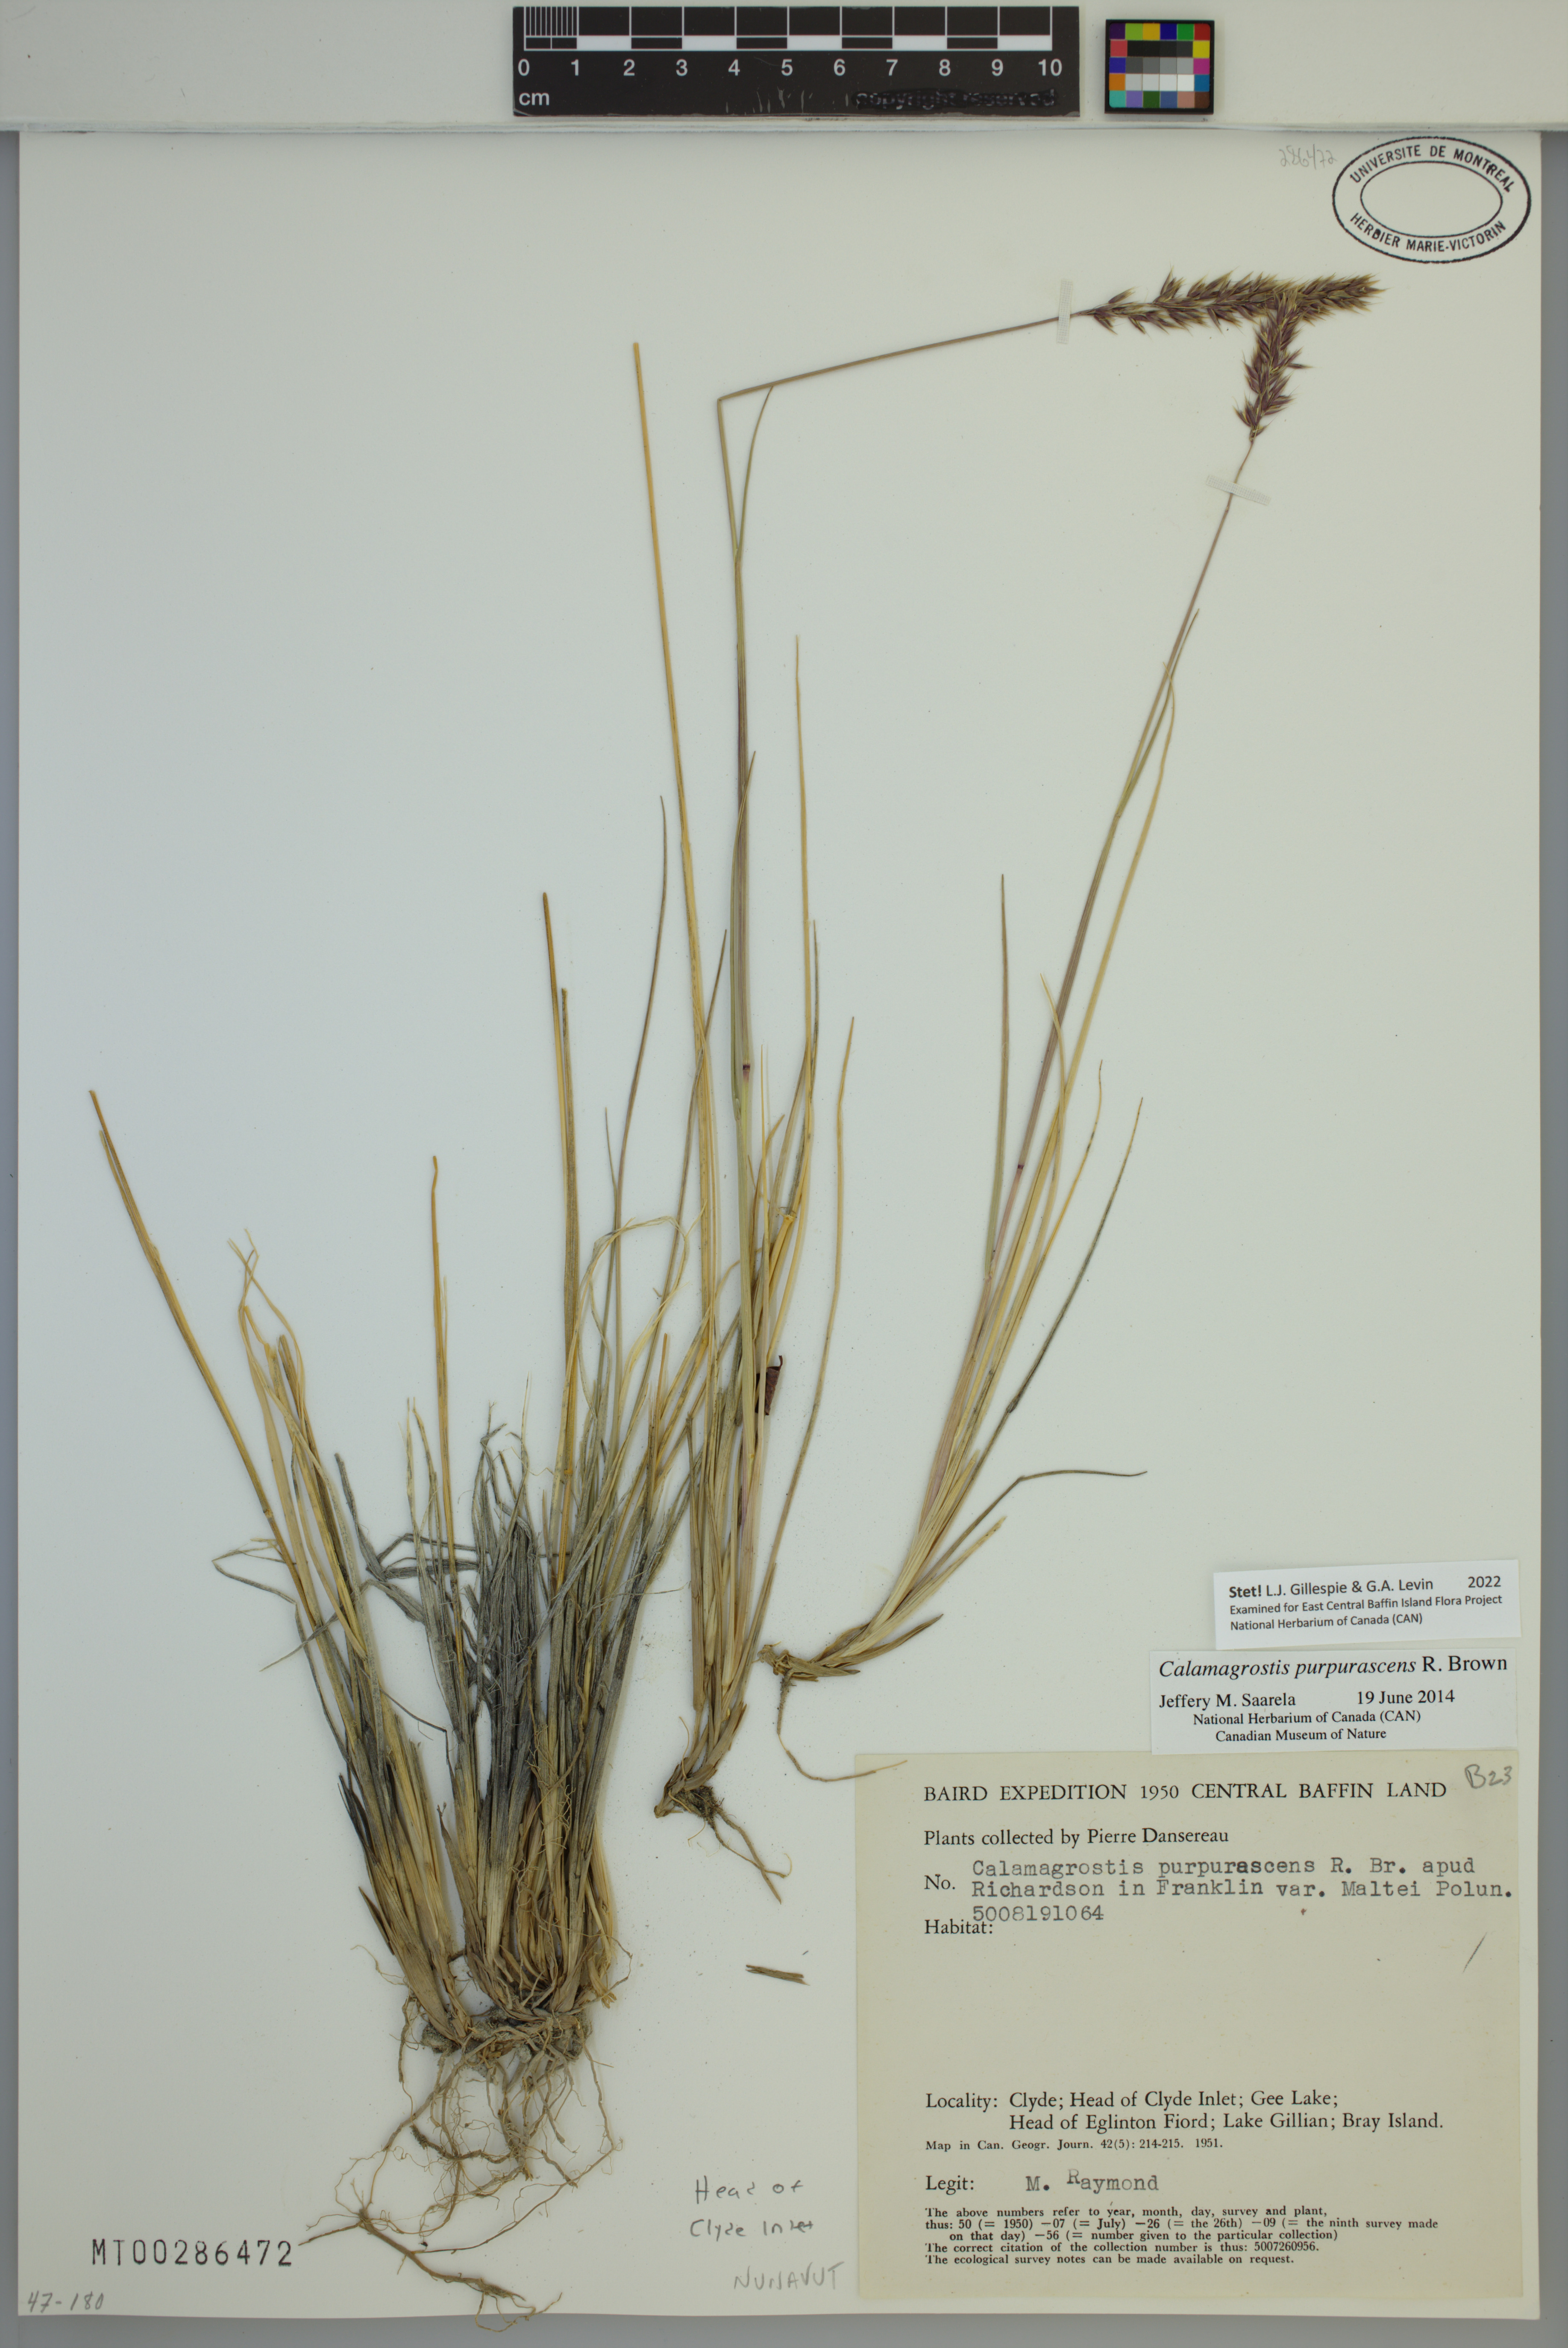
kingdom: Plantae
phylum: Tracheophyta
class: Liliopsida
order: Poales
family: Poaceae
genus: Calamagrostis
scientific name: Calamagrostis purpurascens
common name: Purple reedgrass
